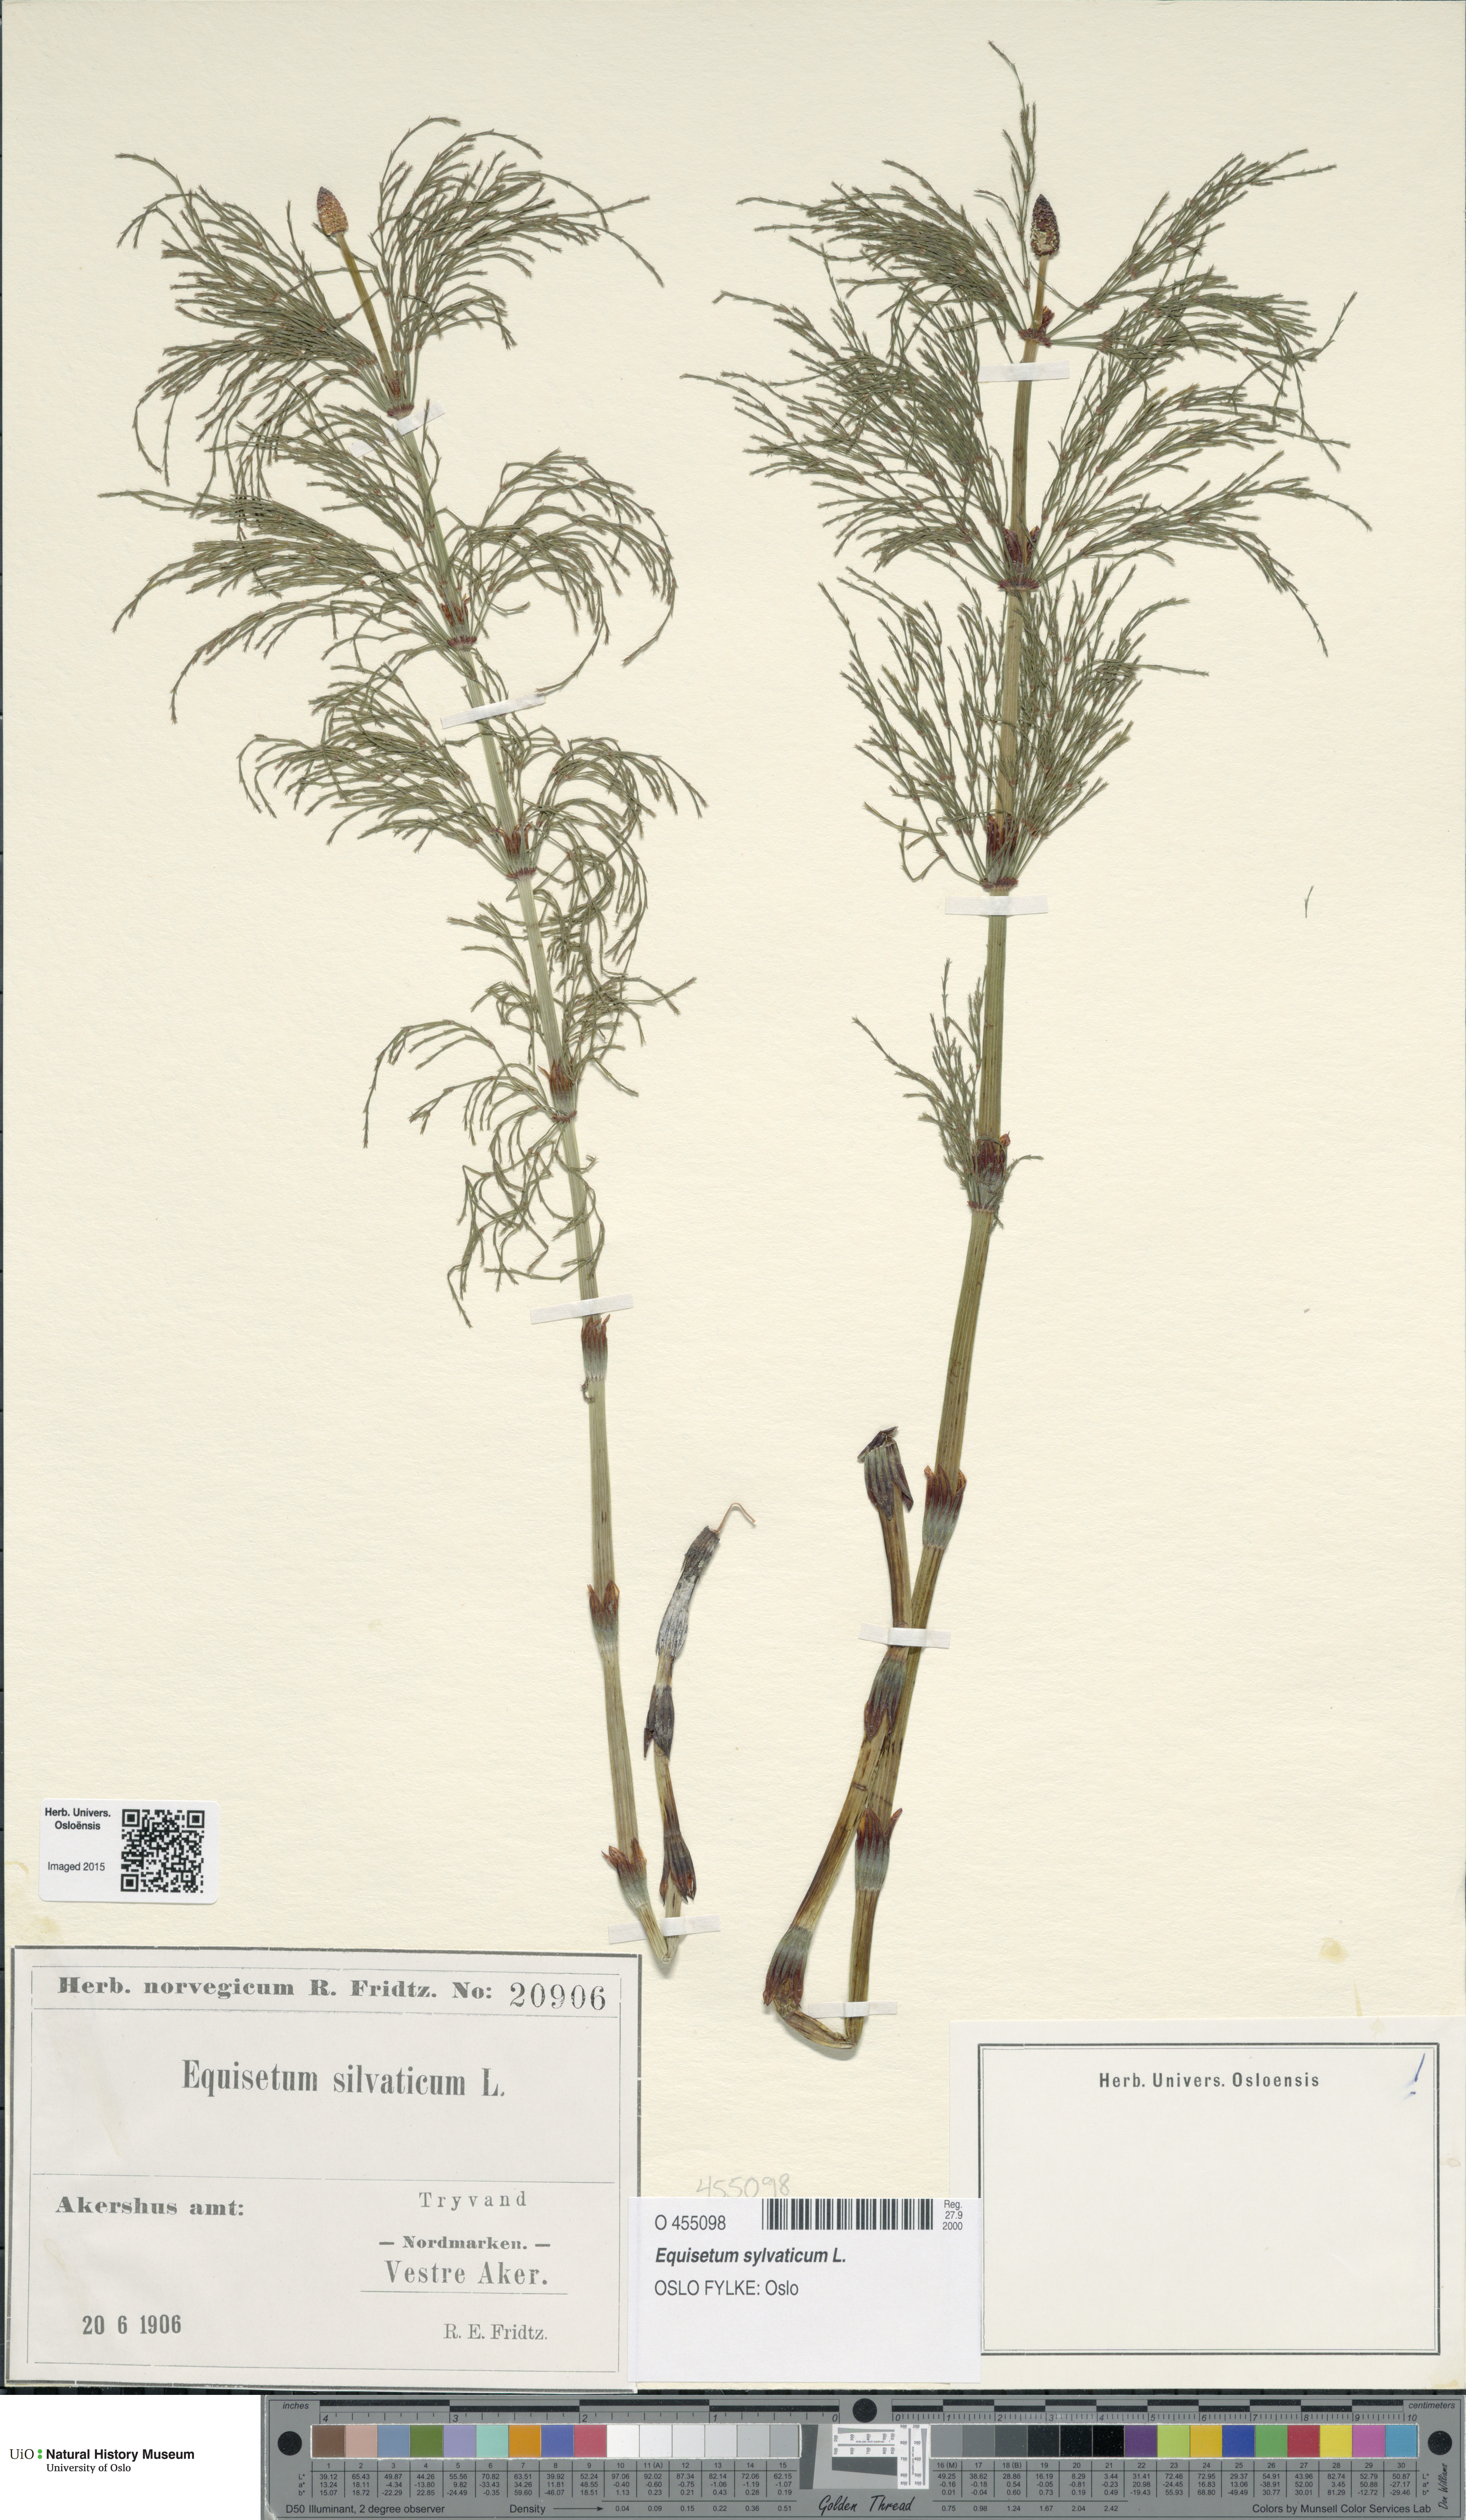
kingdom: Plantae
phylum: Tracheophyta
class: Polypodiopsida
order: Equisetales
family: Equisetaceae
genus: Equisetum
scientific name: Equisetum sylvaticum
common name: Wood horsetail
